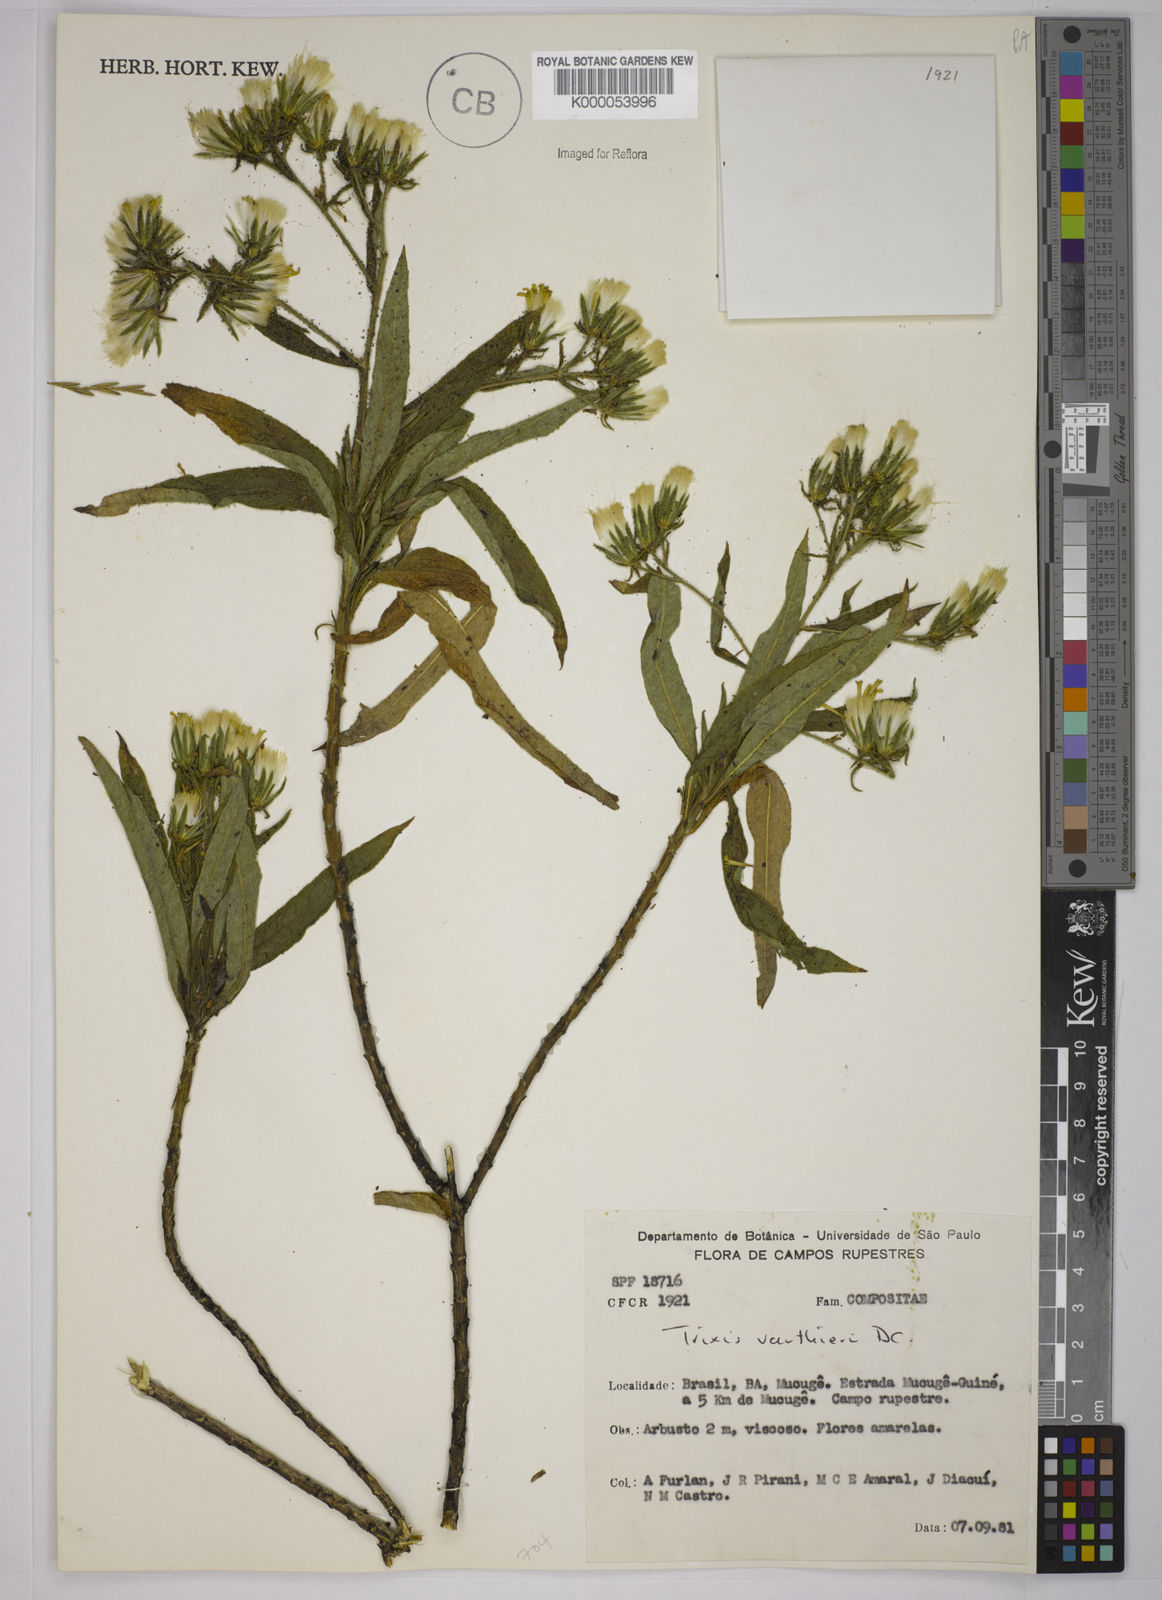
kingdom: Plantae
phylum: Tracheophyta
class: Magnoliopsida
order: Asterales
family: Asteraceae
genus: Trixis
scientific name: Trixis vauthieri
